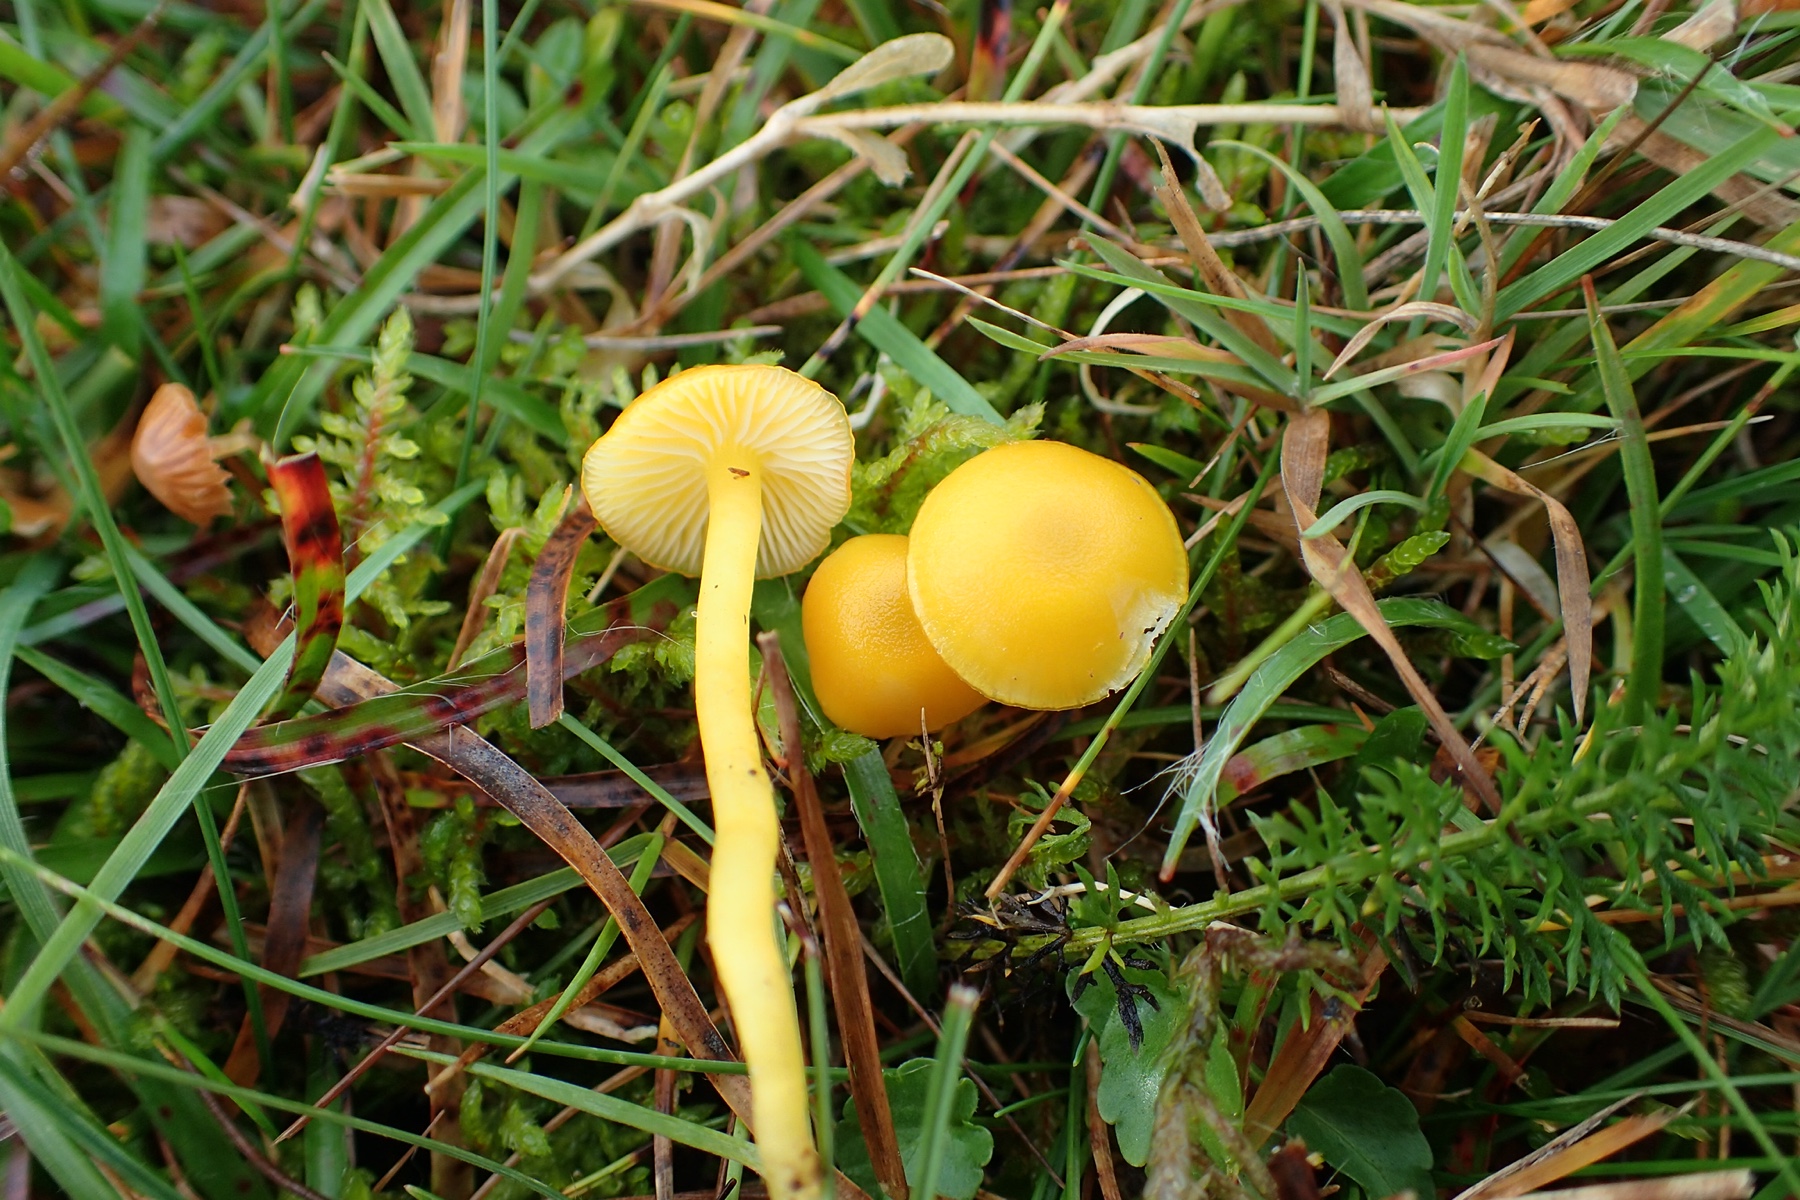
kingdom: Fungi
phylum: Basidiomycota
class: Agaricomycetes
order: Agaricales
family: Hygrophoraceae
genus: Hygrocybe
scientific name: Hygrocybe ceracea
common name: voksgul vokshat
